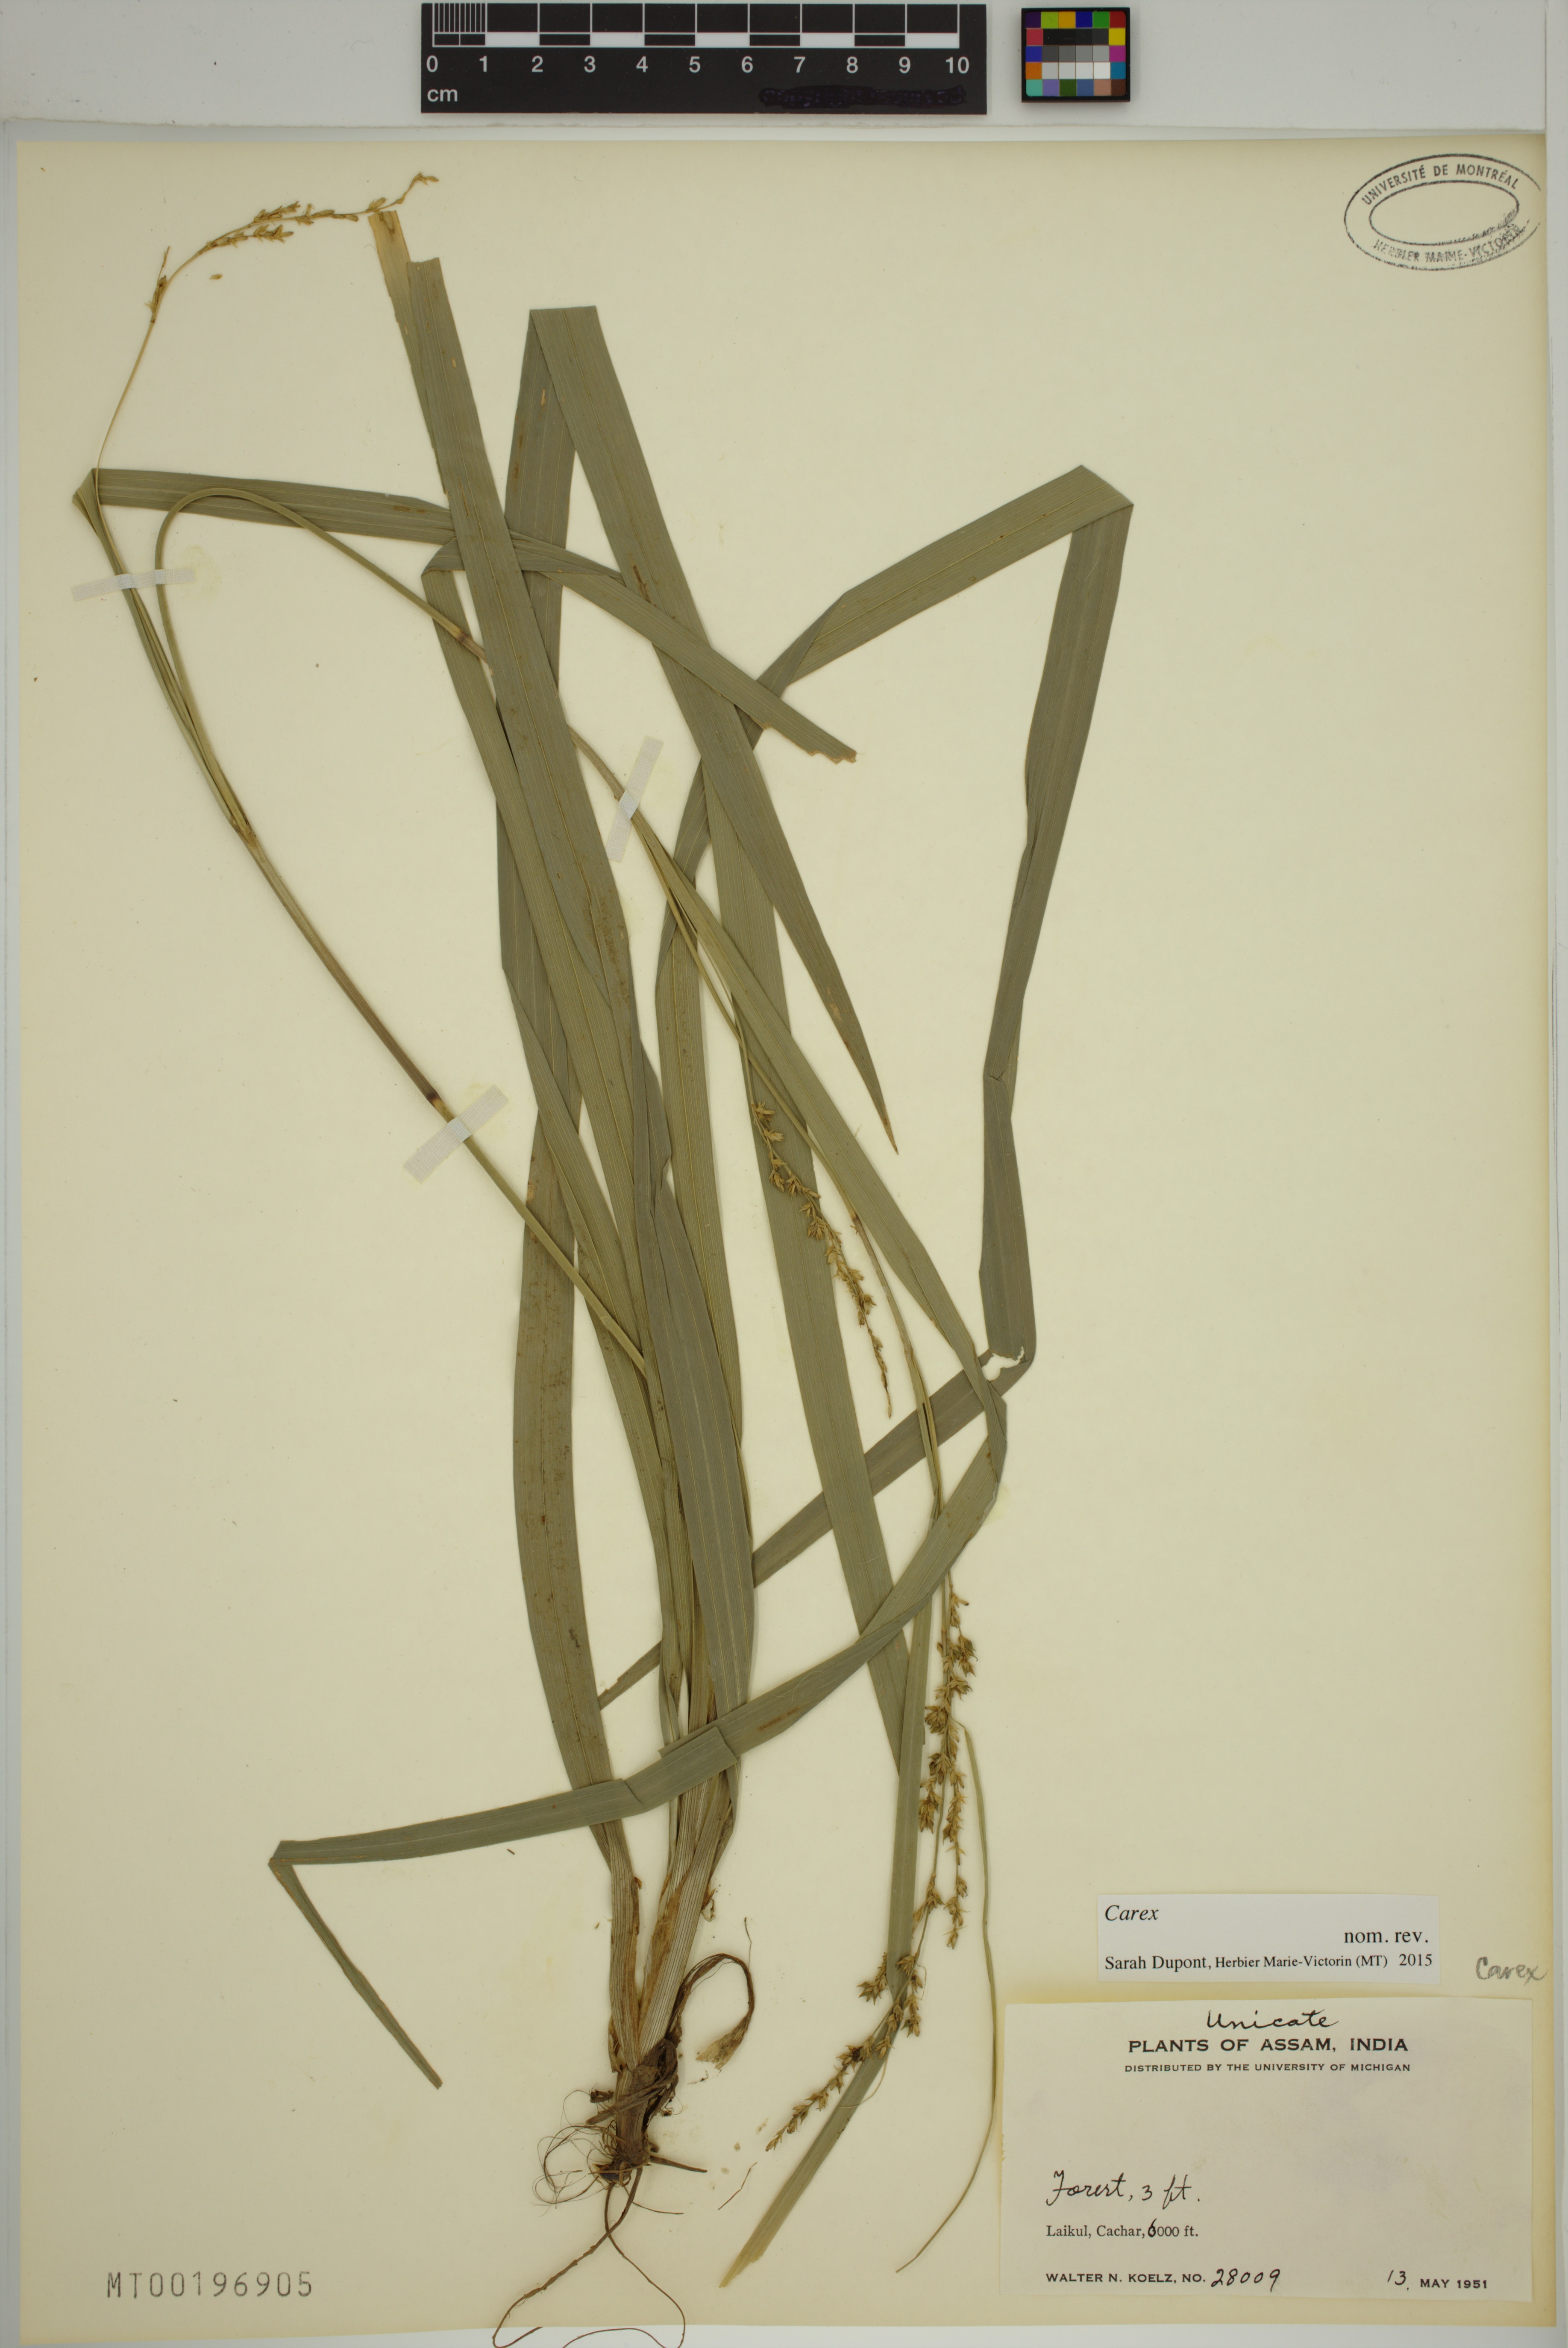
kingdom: Plantae
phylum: Tracheophyta
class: Liliopsida
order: Poales
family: Cyperaceae
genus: Carex
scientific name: Carex
